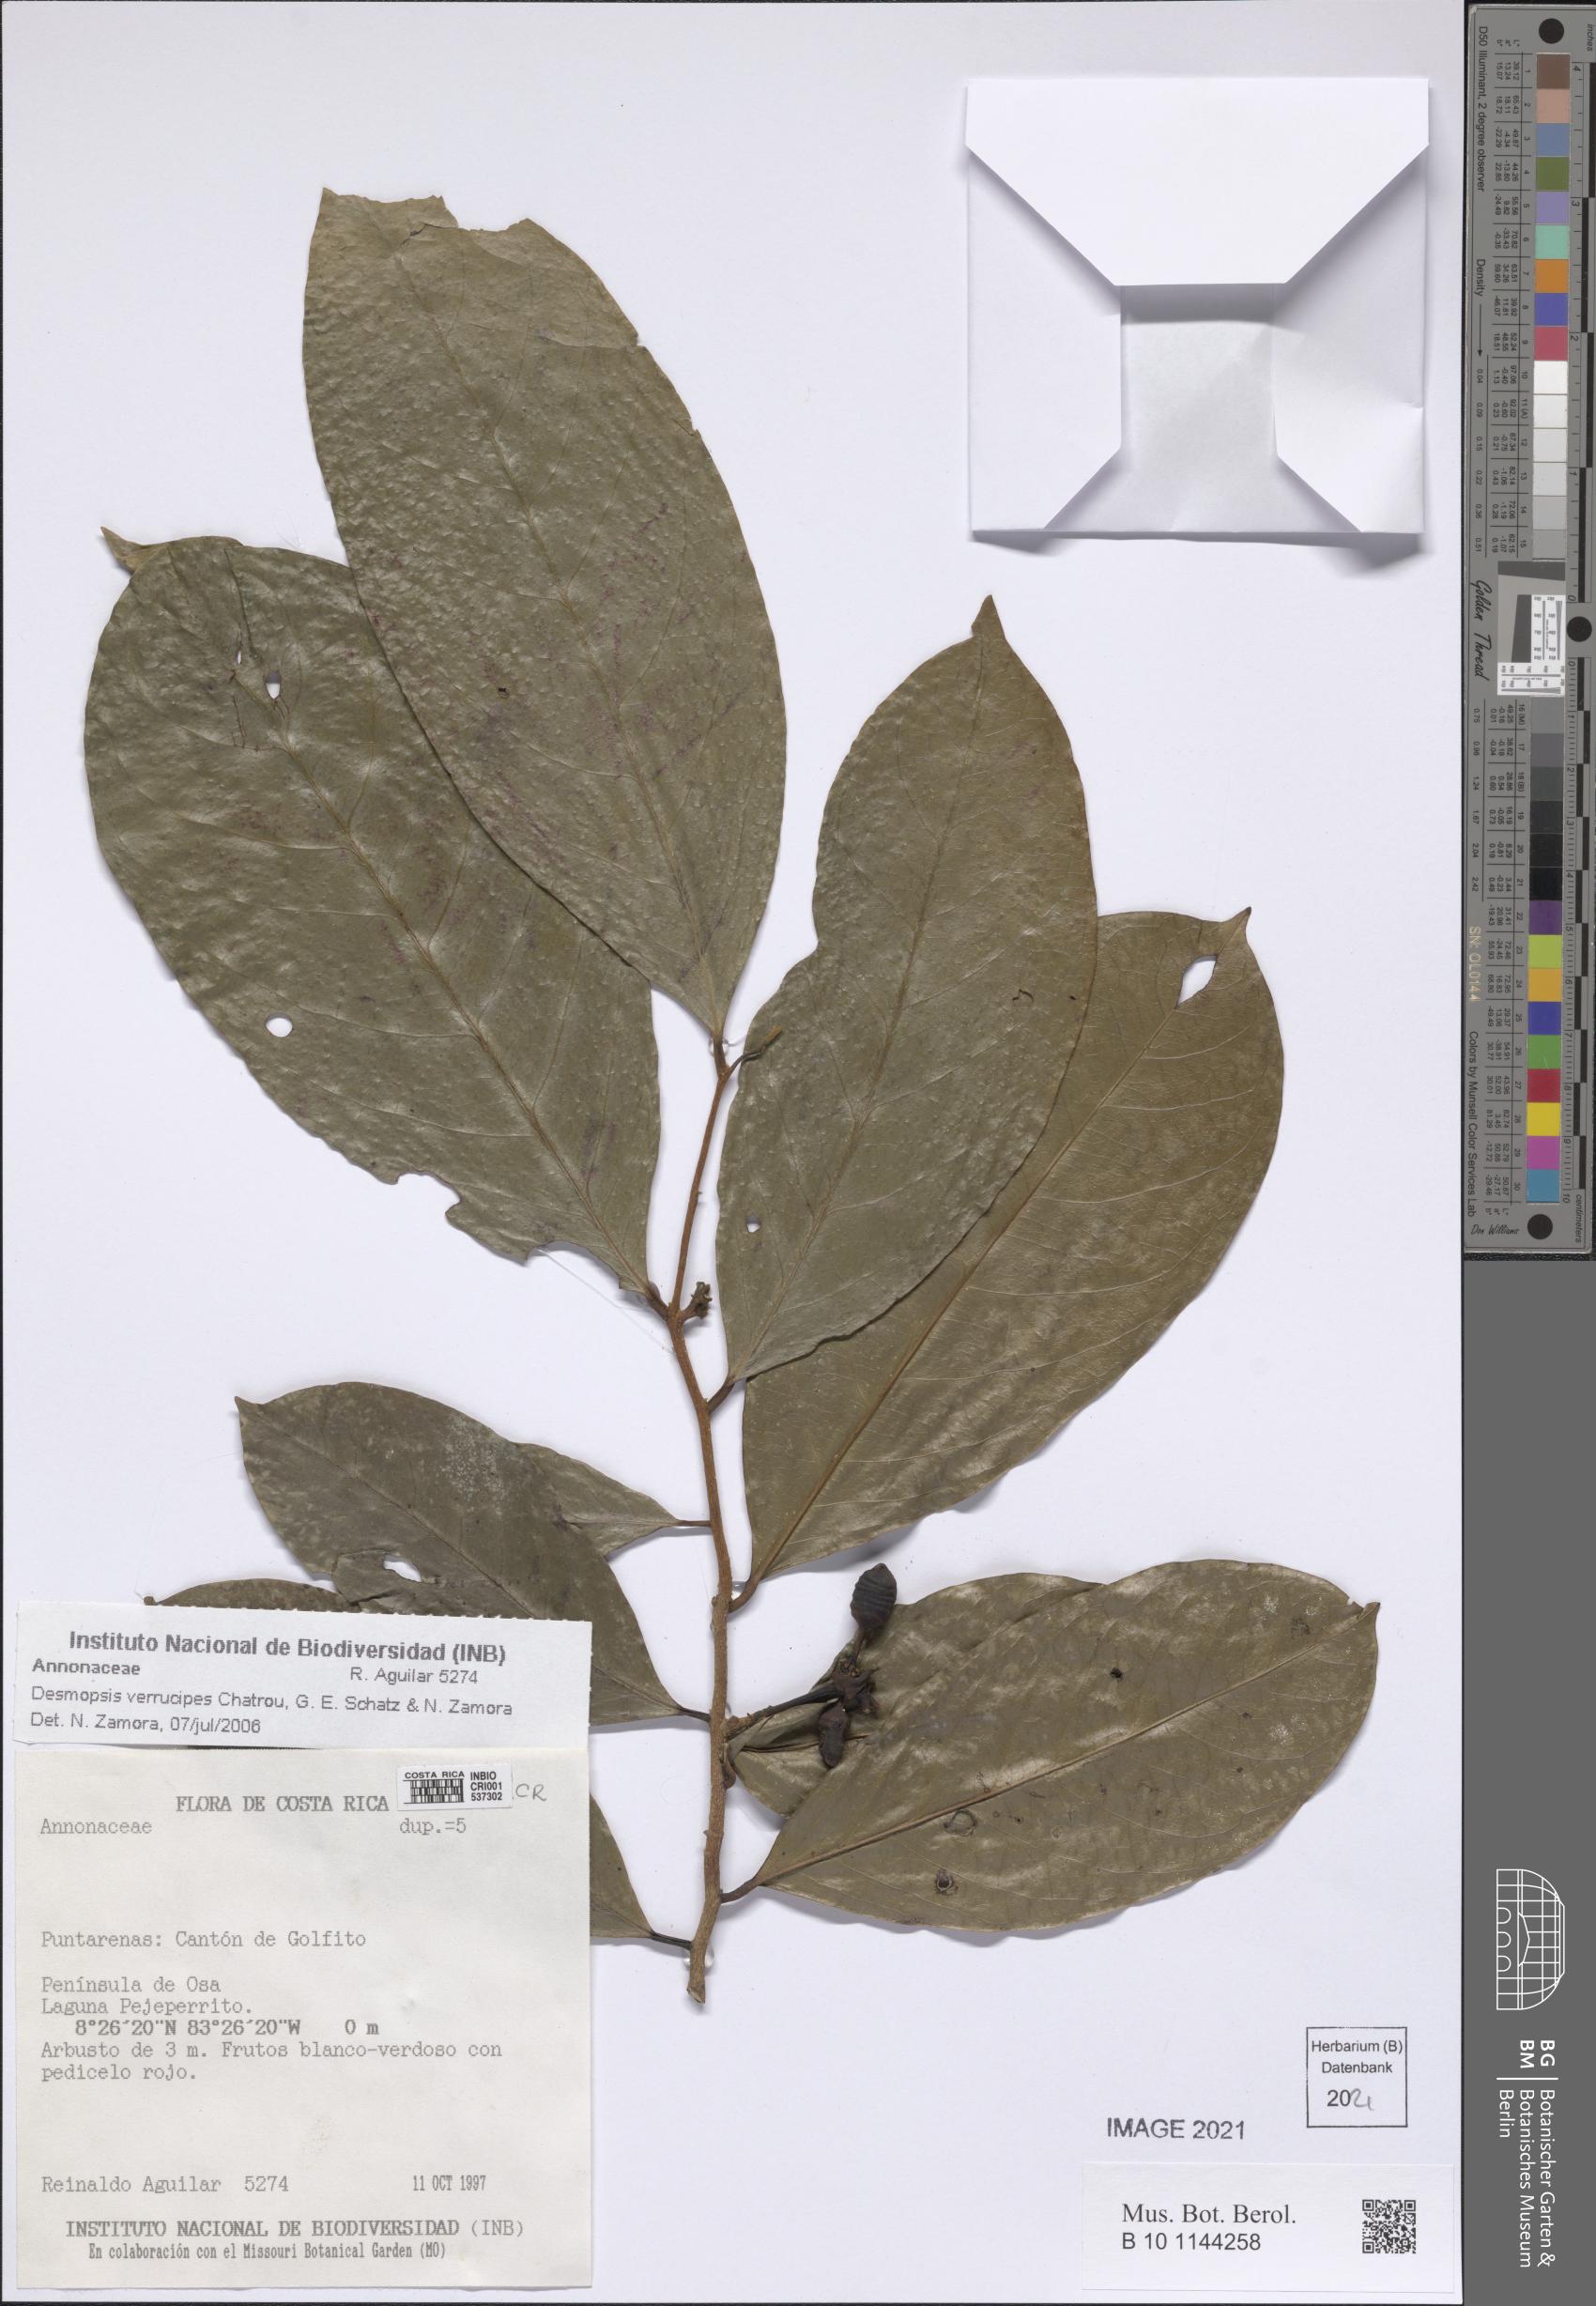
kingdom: Plantae
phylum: Tracheophyta
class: Magnoliopsida
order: Magnoliales
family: Annonaceae
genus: Desmopsis
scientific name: Desmopsis verrucipes
